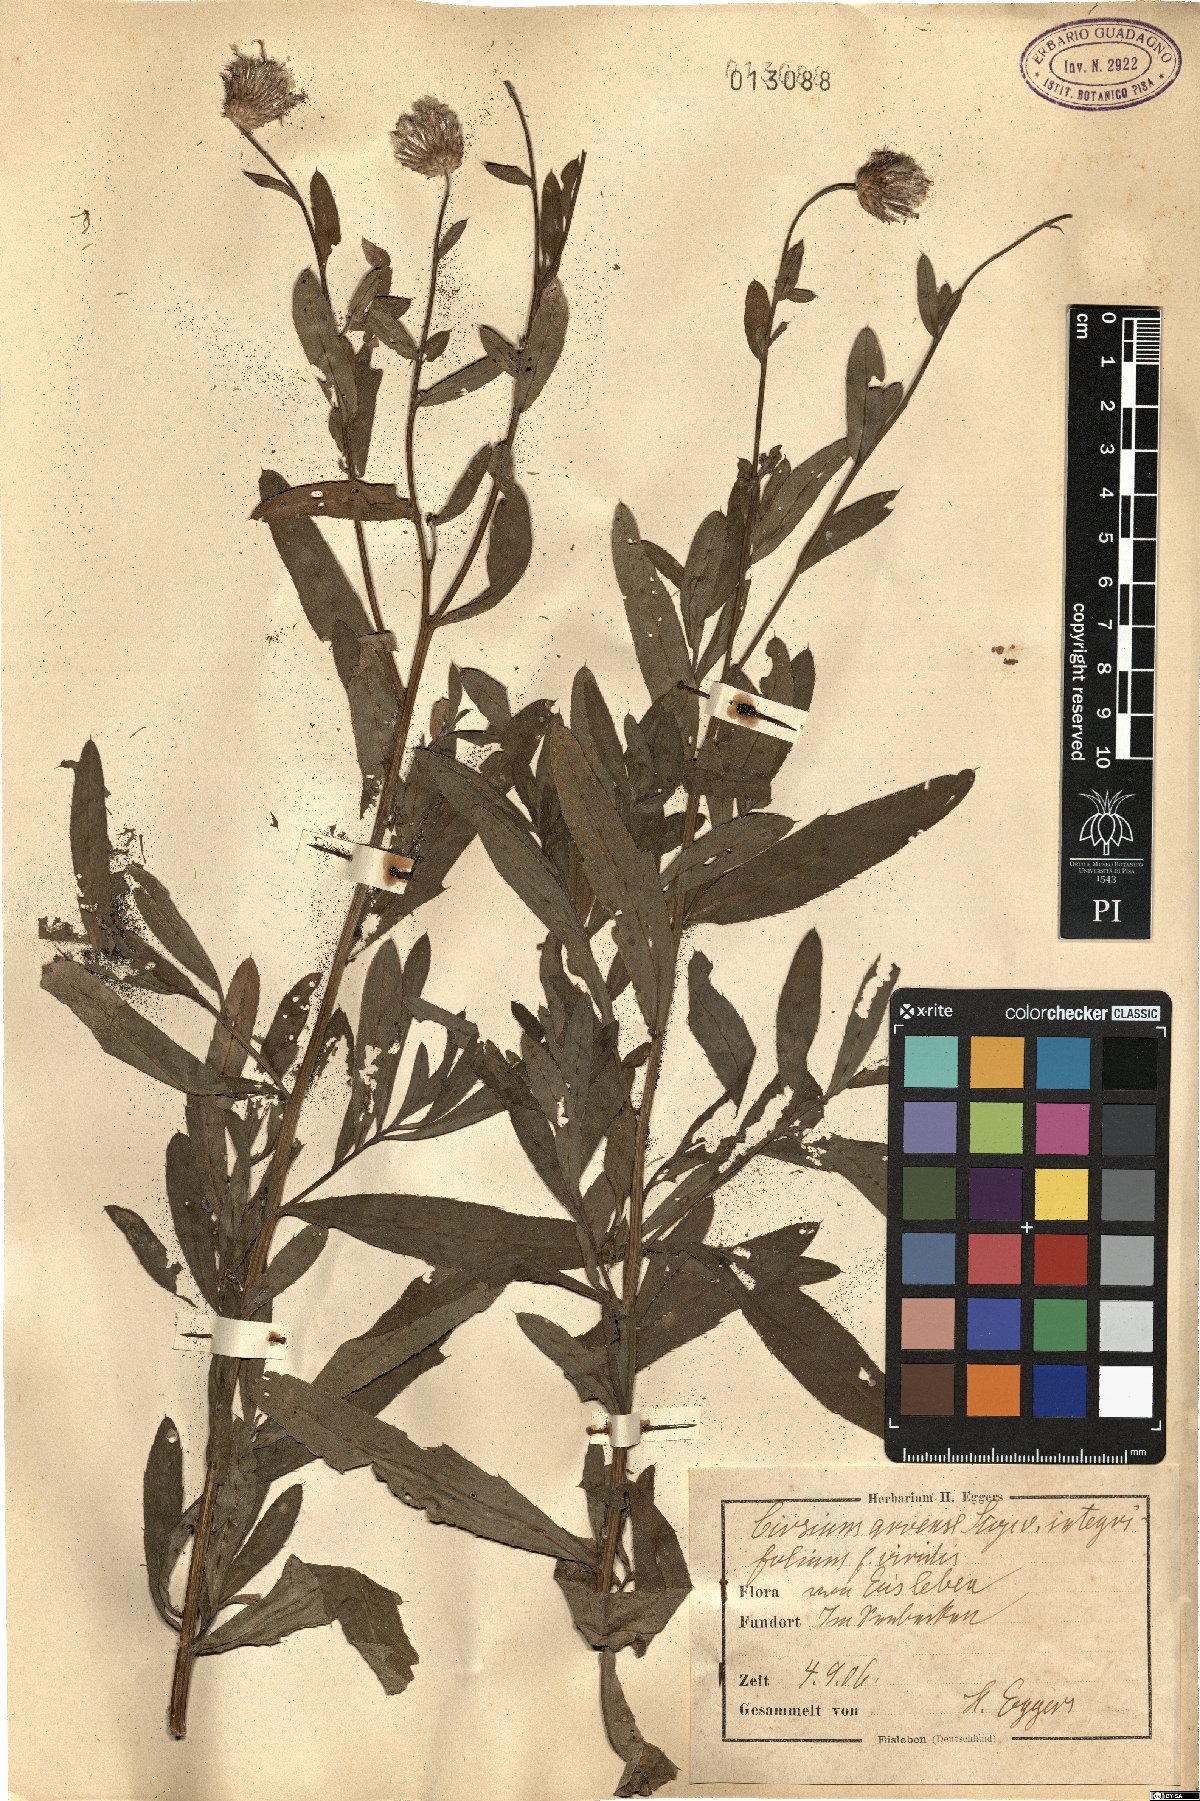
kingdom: Plantae
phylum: Tracheophyta
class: Magnoliopsida
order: Asterales
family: Asteraceae
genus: Cirsium
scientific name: Cirsium arvense
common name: Creeping thistle
